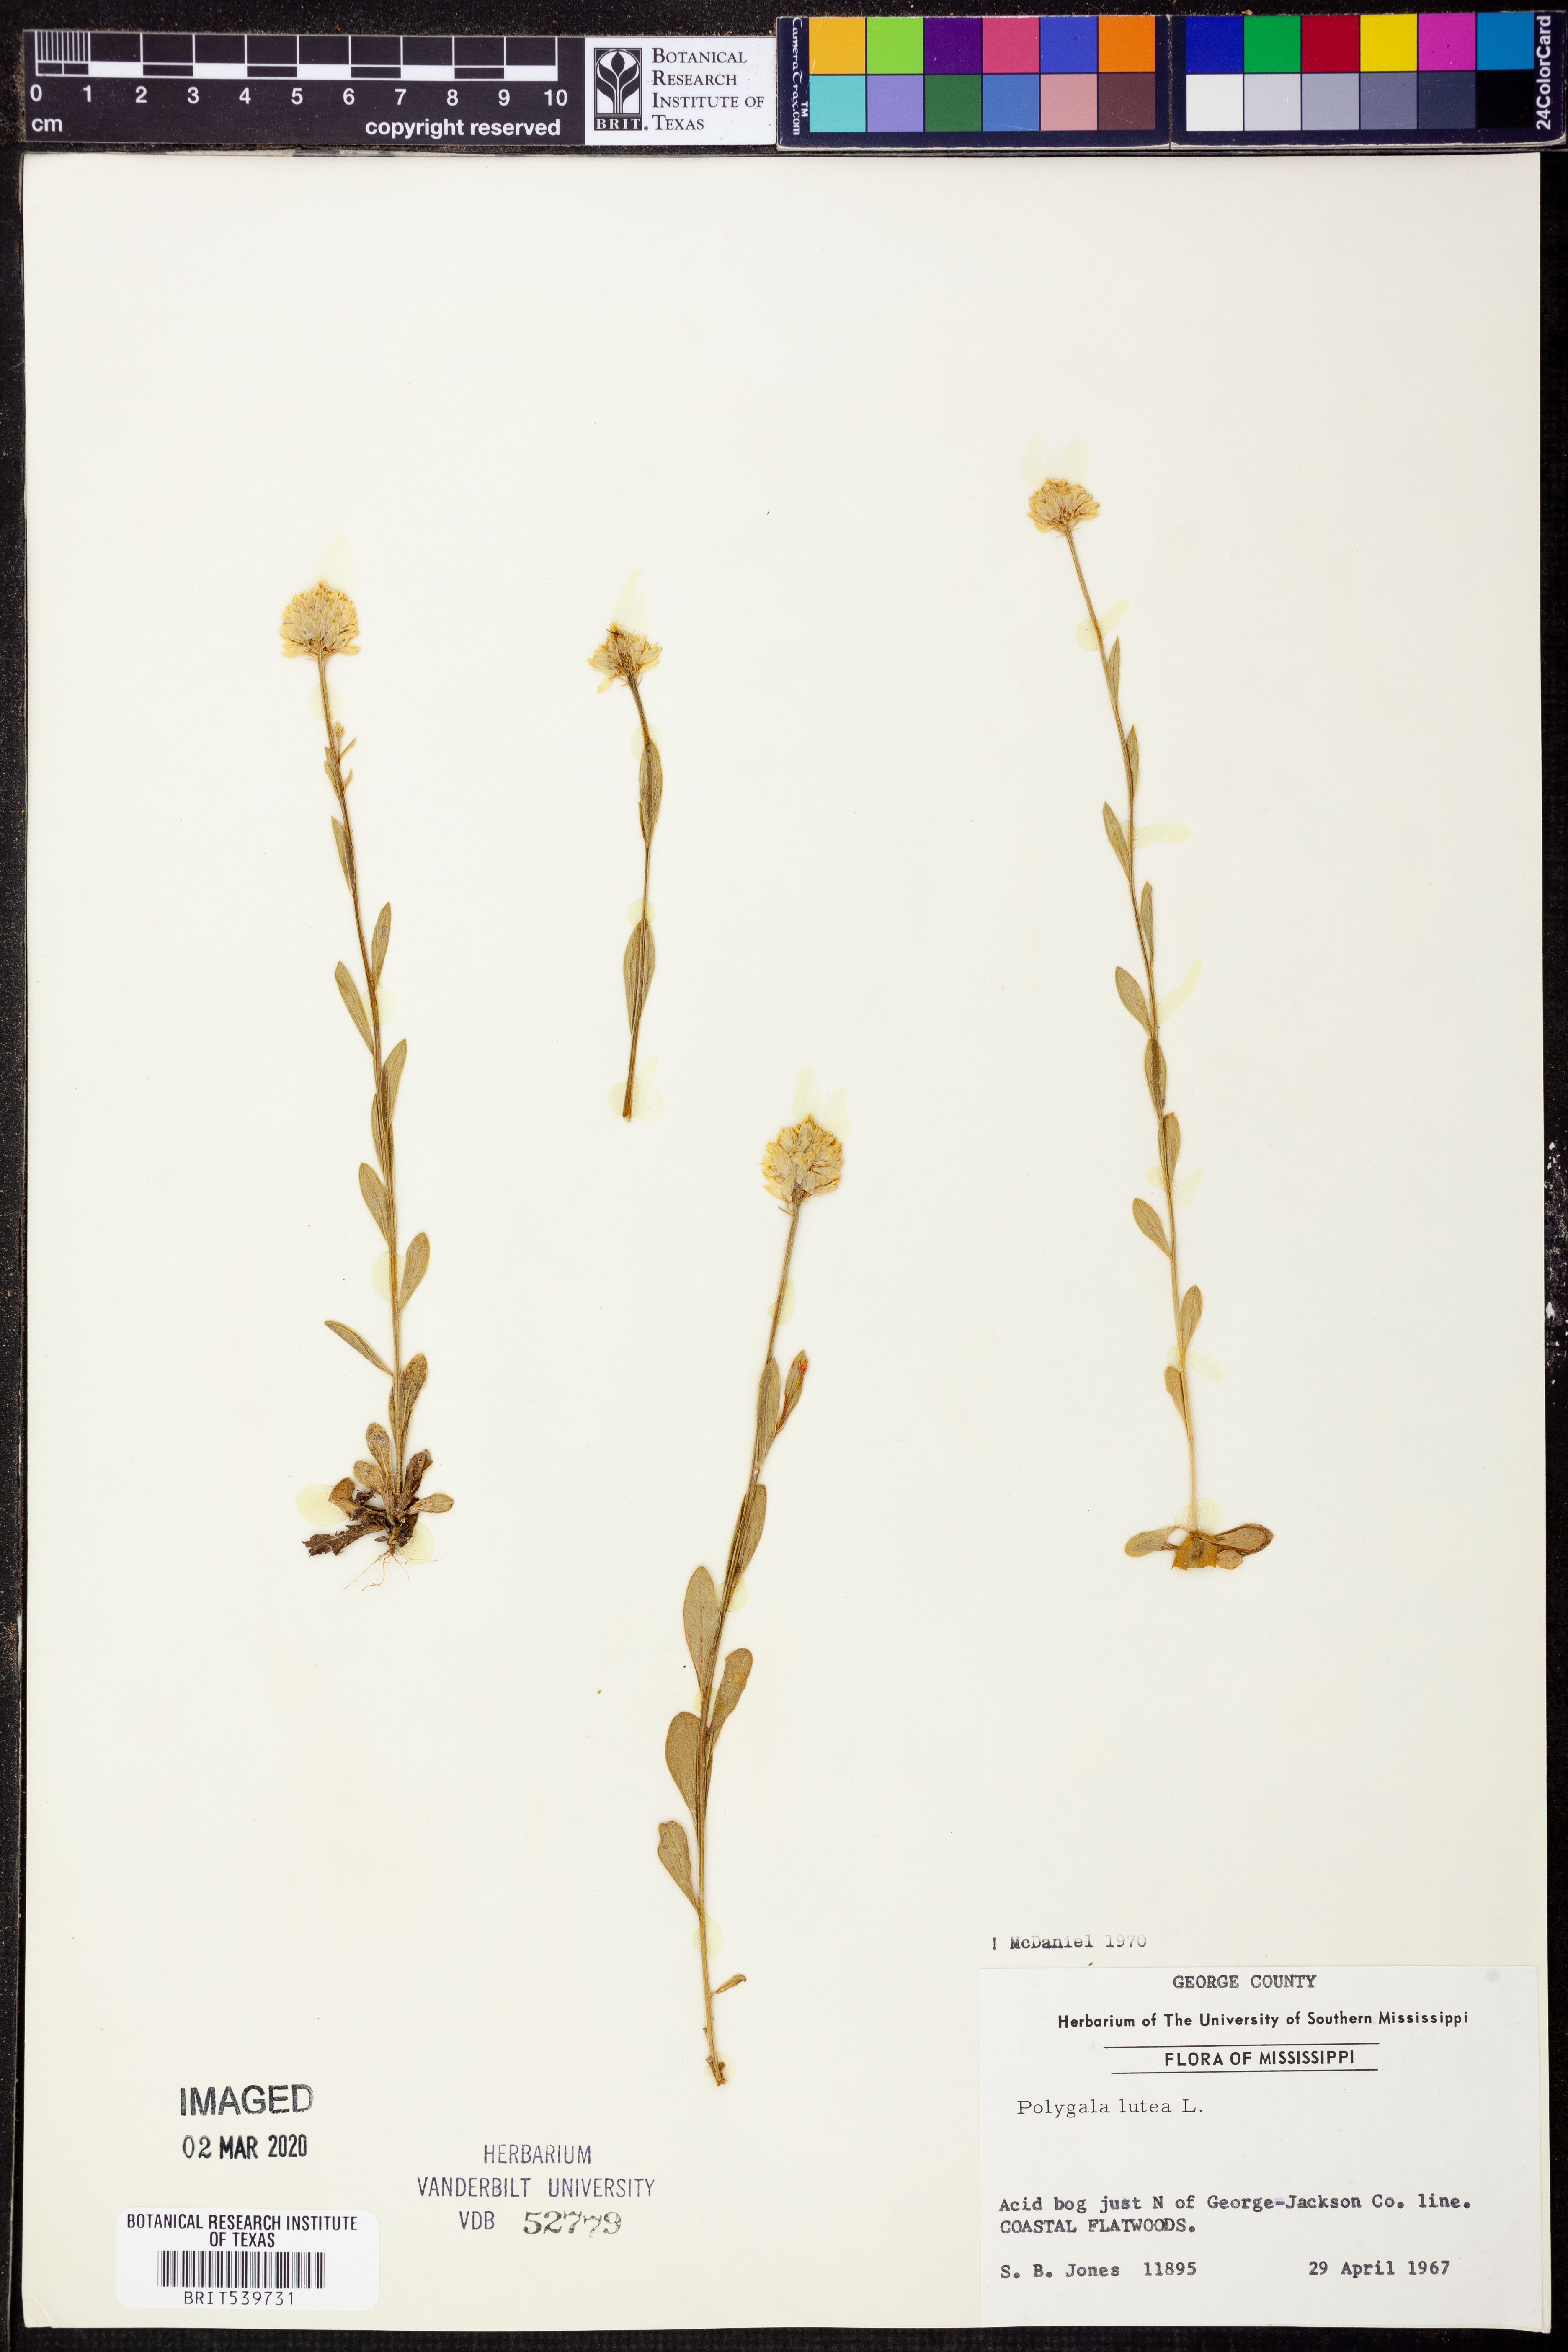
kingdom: Plantae
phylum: Tracheophyta
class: Magnoliopsida
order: Fabales
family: Polygalaceae
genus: Polygala
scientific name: Polygala lutea
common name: Orange milkwort
